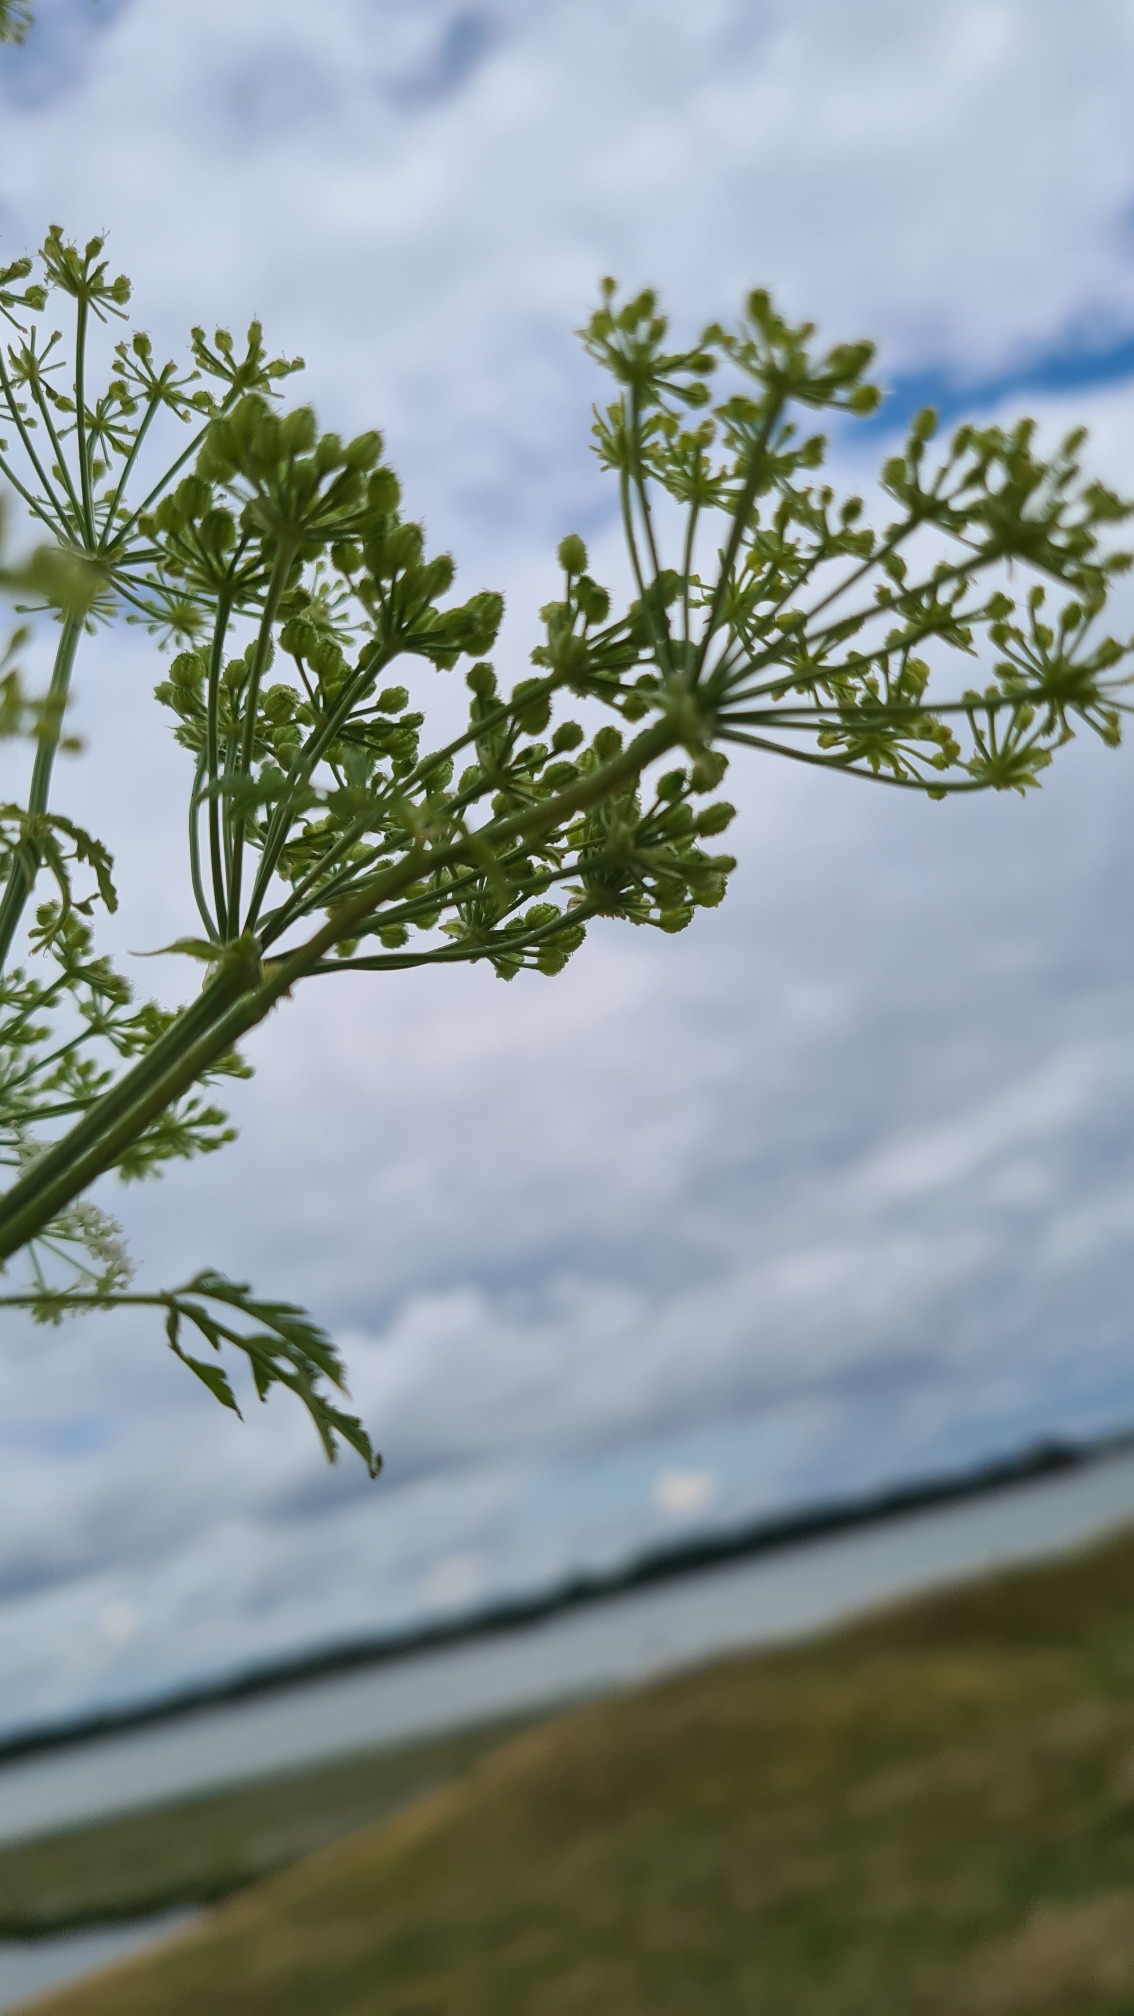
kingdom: Plantae
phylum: Tracheophyta
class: Magnoliopsida
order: Apiales
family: Apiaceae
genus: Conium
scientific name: Conium maculatum
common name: Skarntyde
